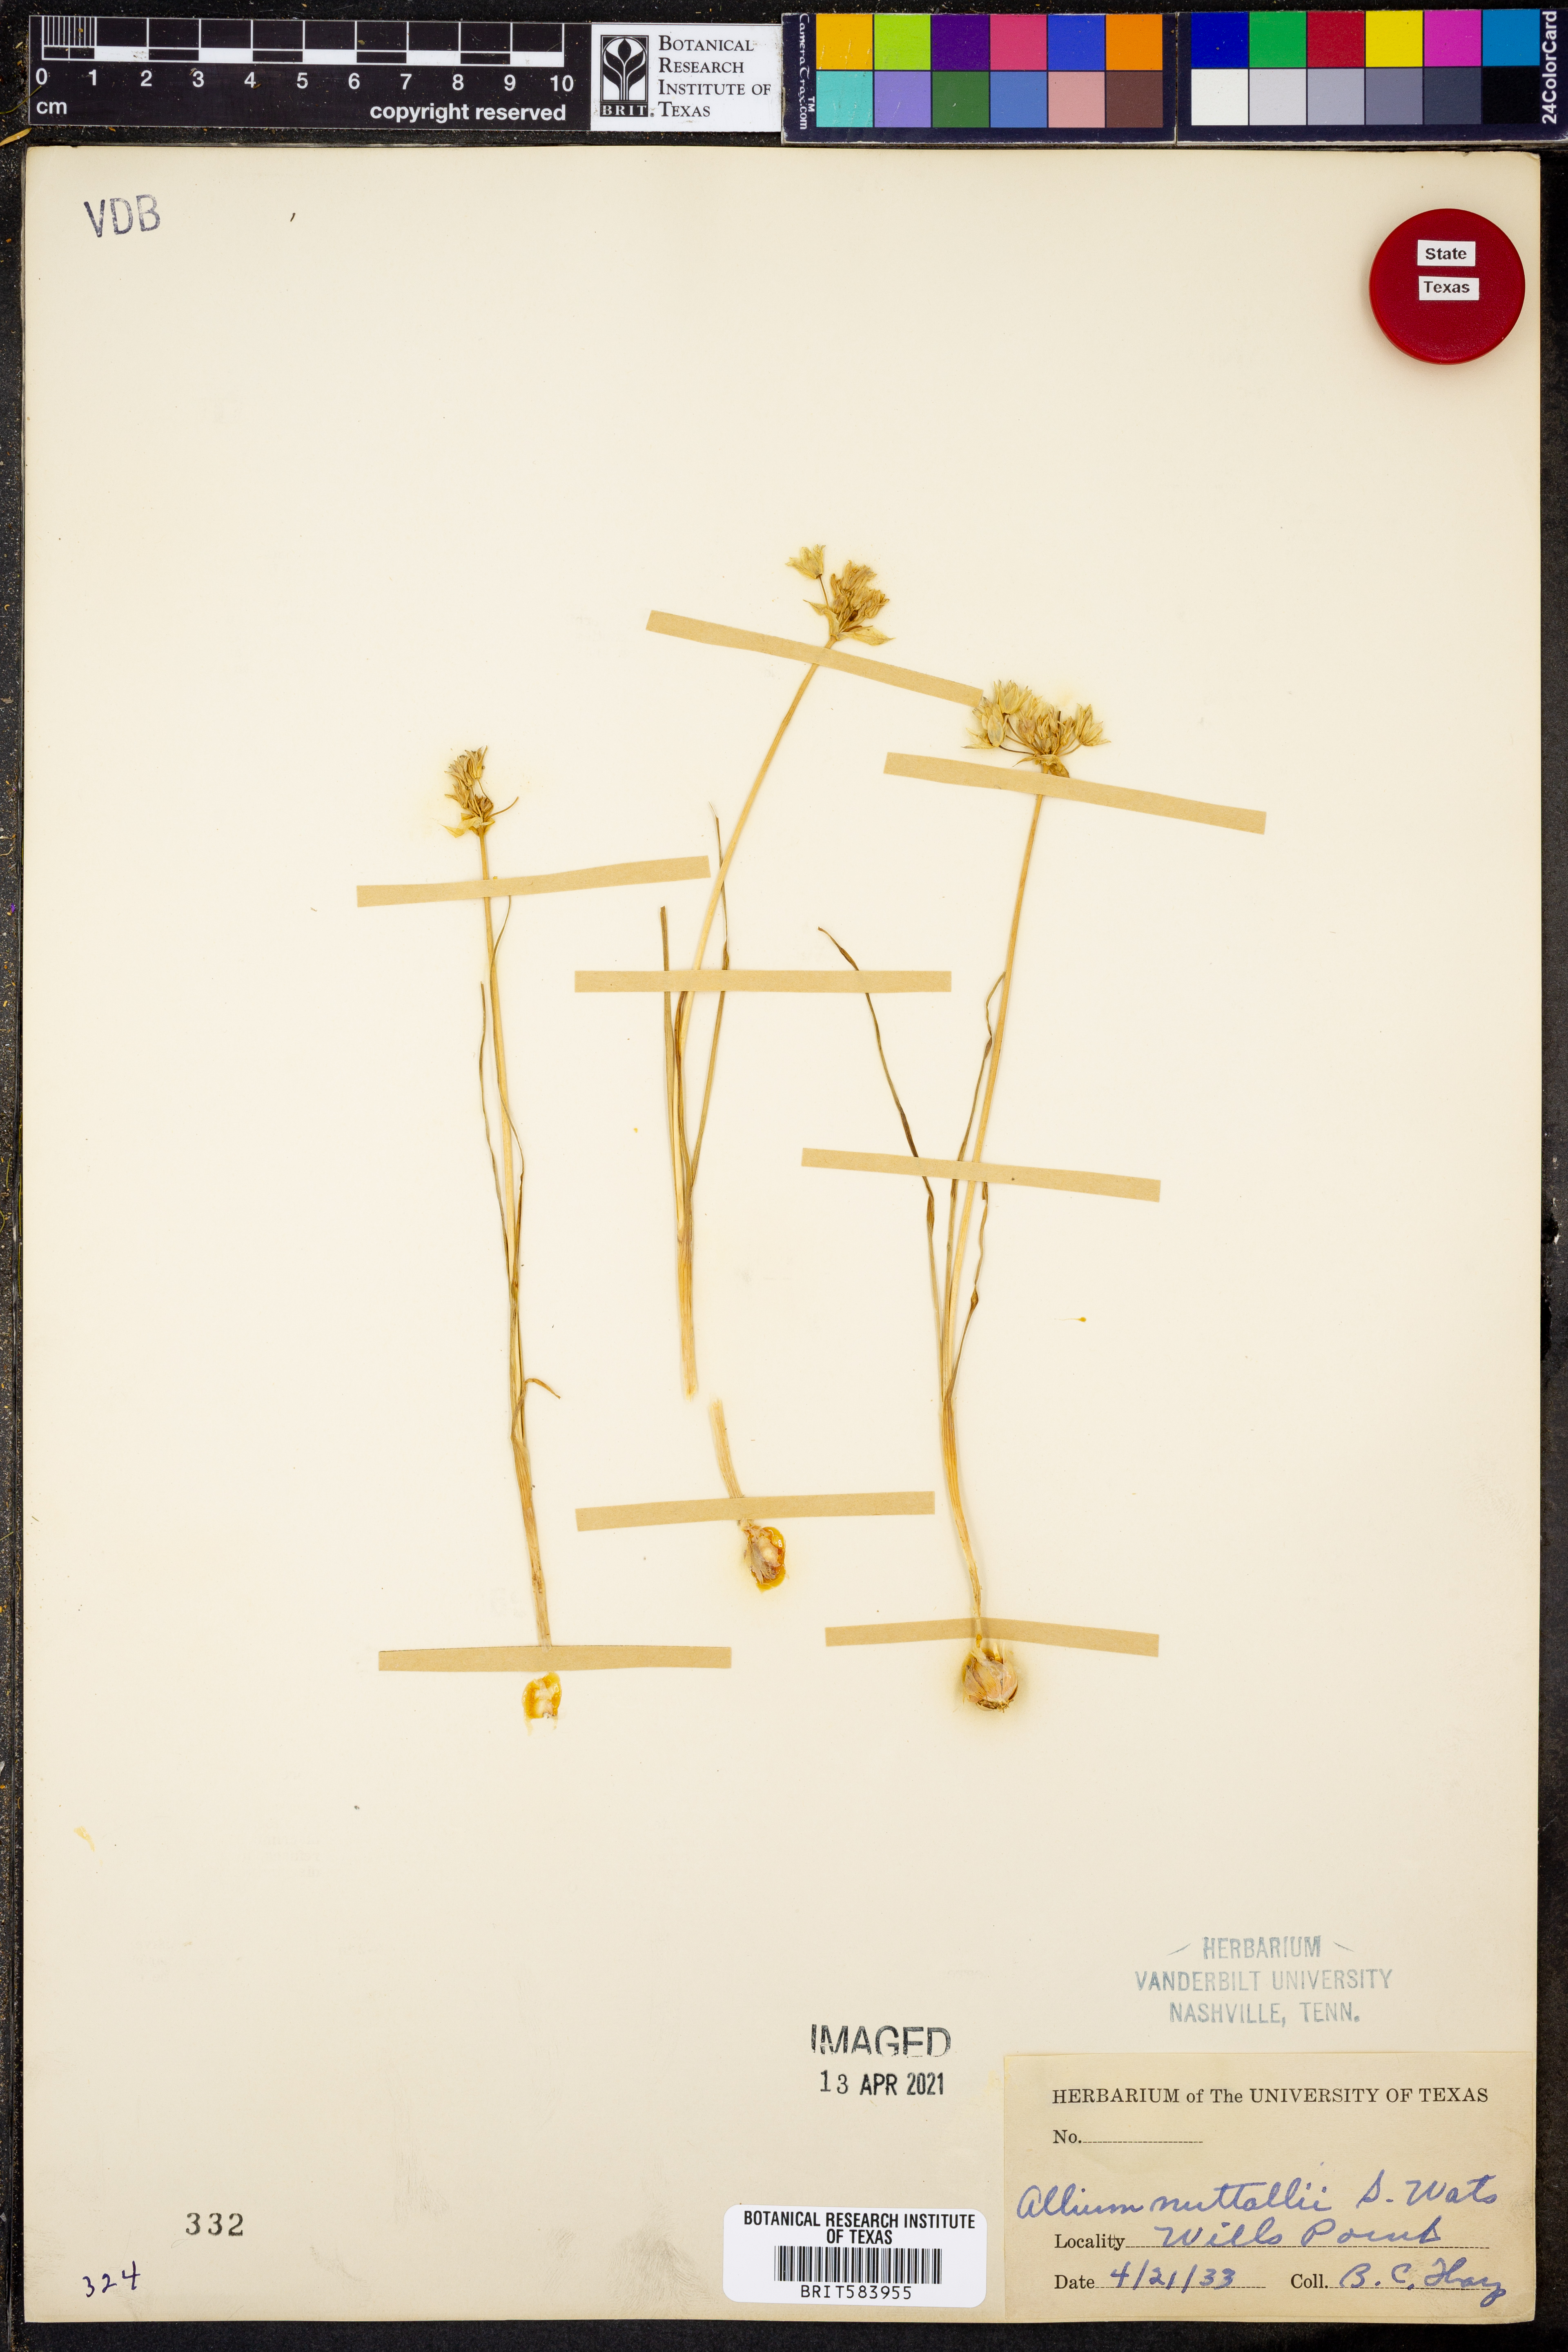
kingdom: Plantae
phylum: Tracheophyta
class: Liliopsida
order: Asparagales
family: Amaryllidaceae
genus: Allium
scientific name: Allium drummondii
